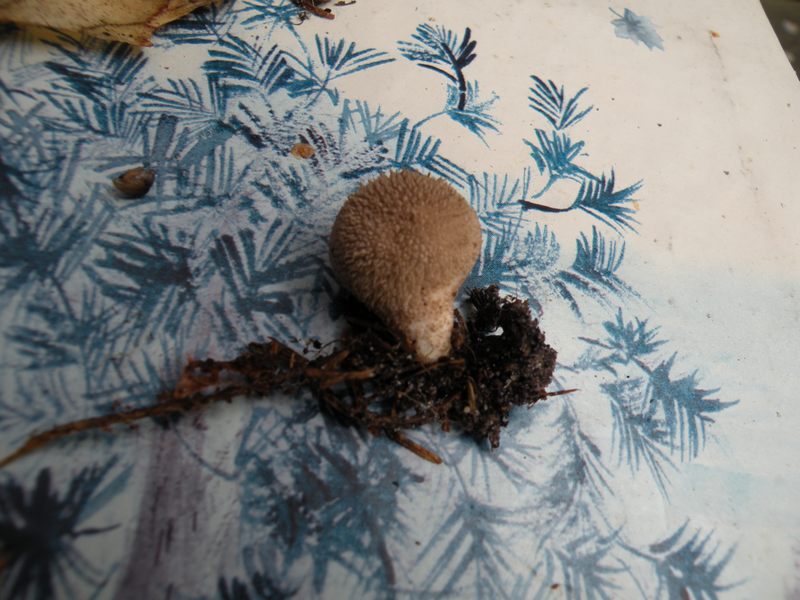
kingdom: Fungi
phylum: Basidiomycota
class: Agaricomycetes
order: Agaricales
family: Lycoperdaceae
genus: Lycoperdon
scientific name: Lycoperdon nigrescens
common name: sortagtig støvbold
